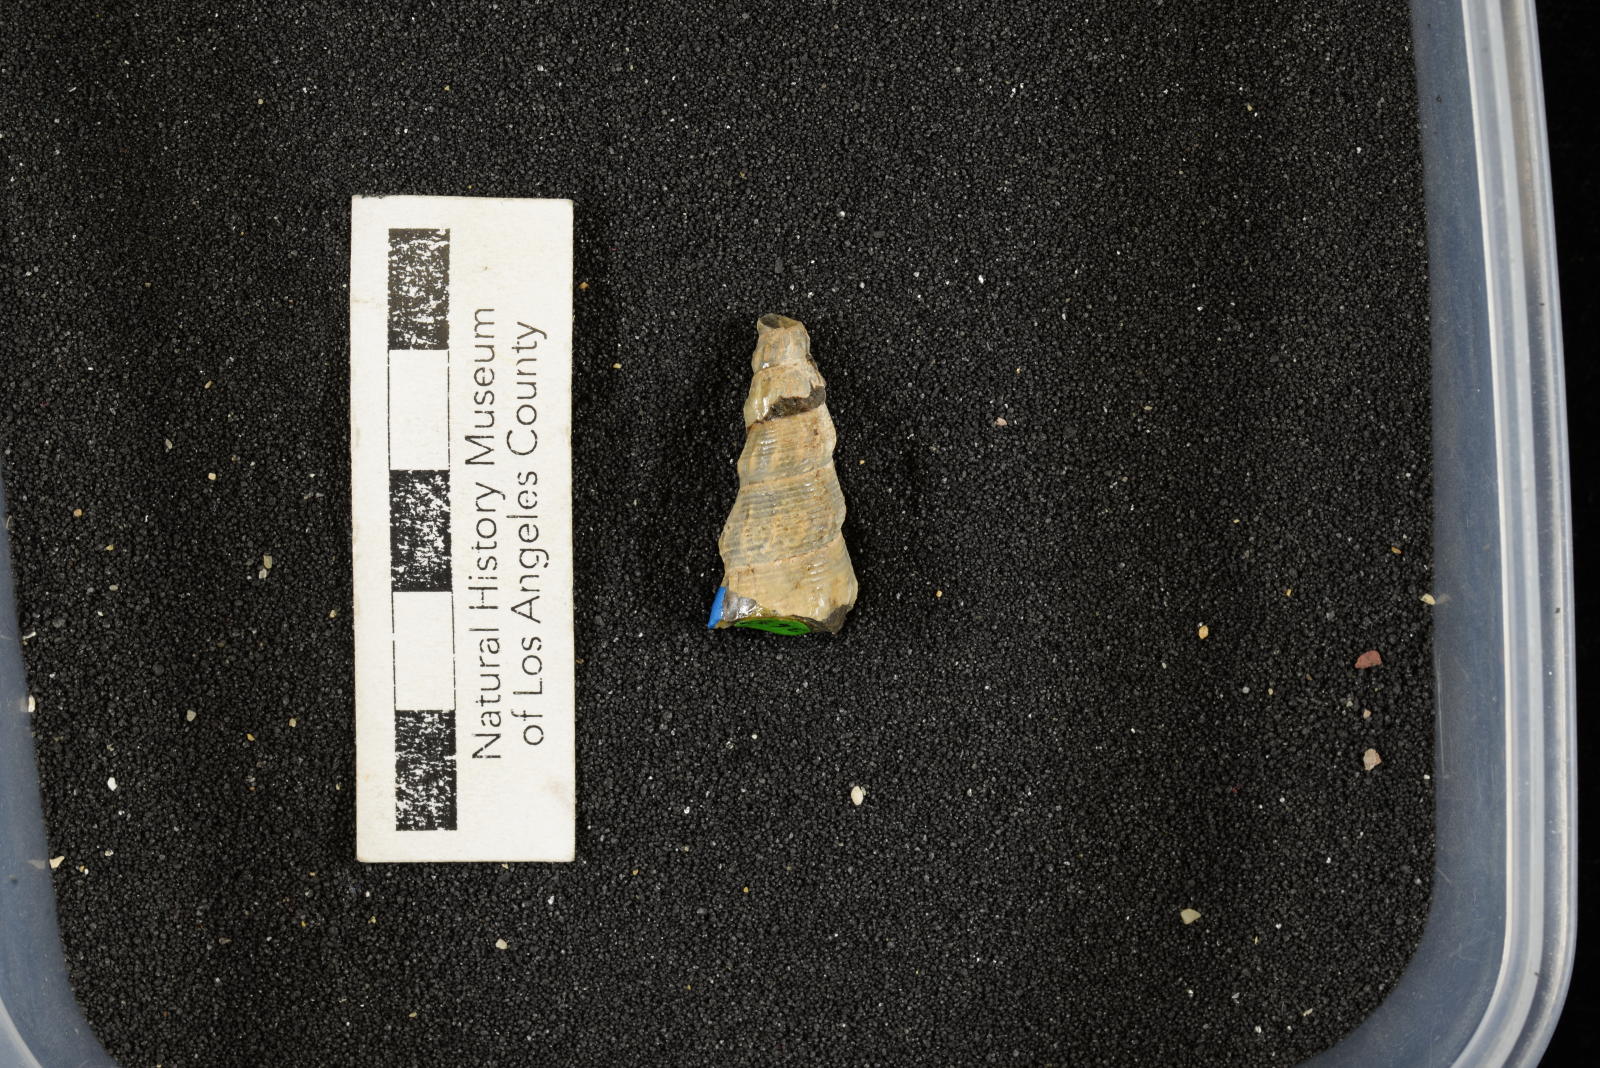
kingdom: Animalia
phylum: Mollusca
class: Gastropoda
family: Metacerithiidae
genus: Cimolithium
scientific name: Cimolithium eleanorae
